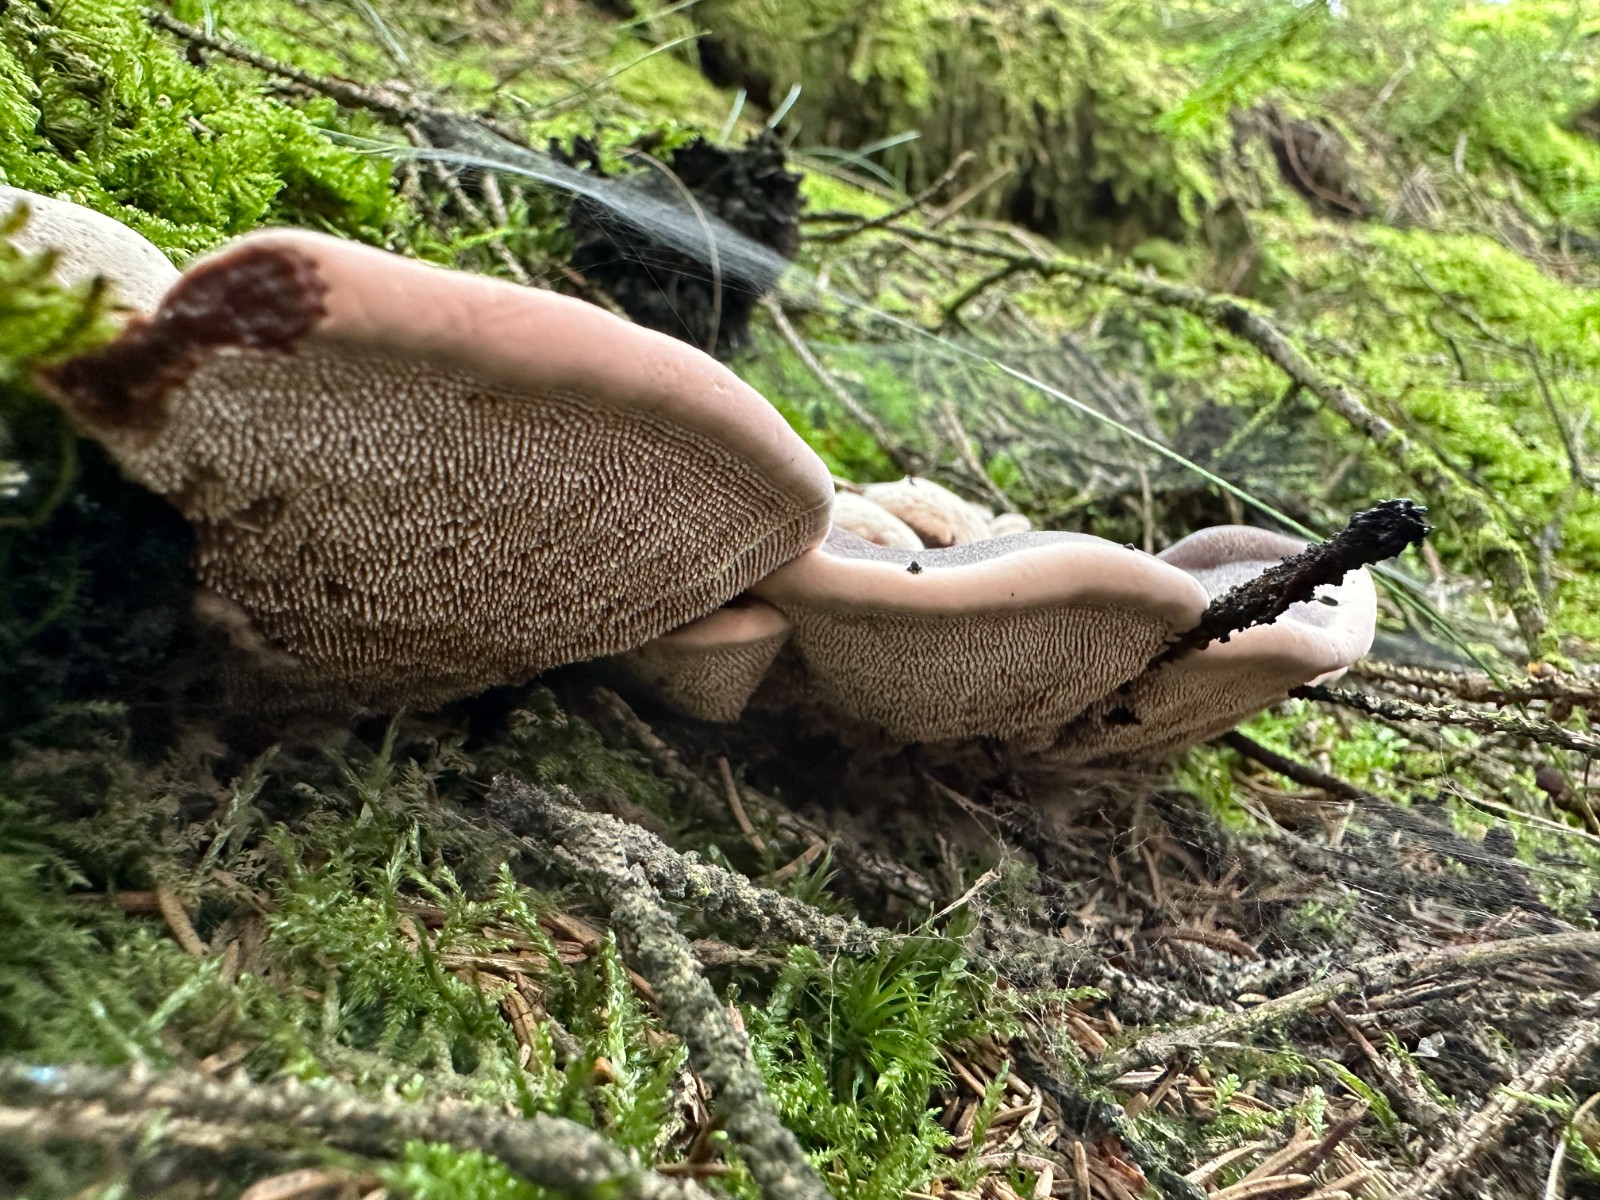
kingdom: Fungi
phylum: Basidiomycota
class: Agaricomycetes
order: Thelephorales
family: Bankeraceae
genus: Hydnellum
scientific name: Hydnellum ferrugineum
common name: rust-korkpigsvamp
